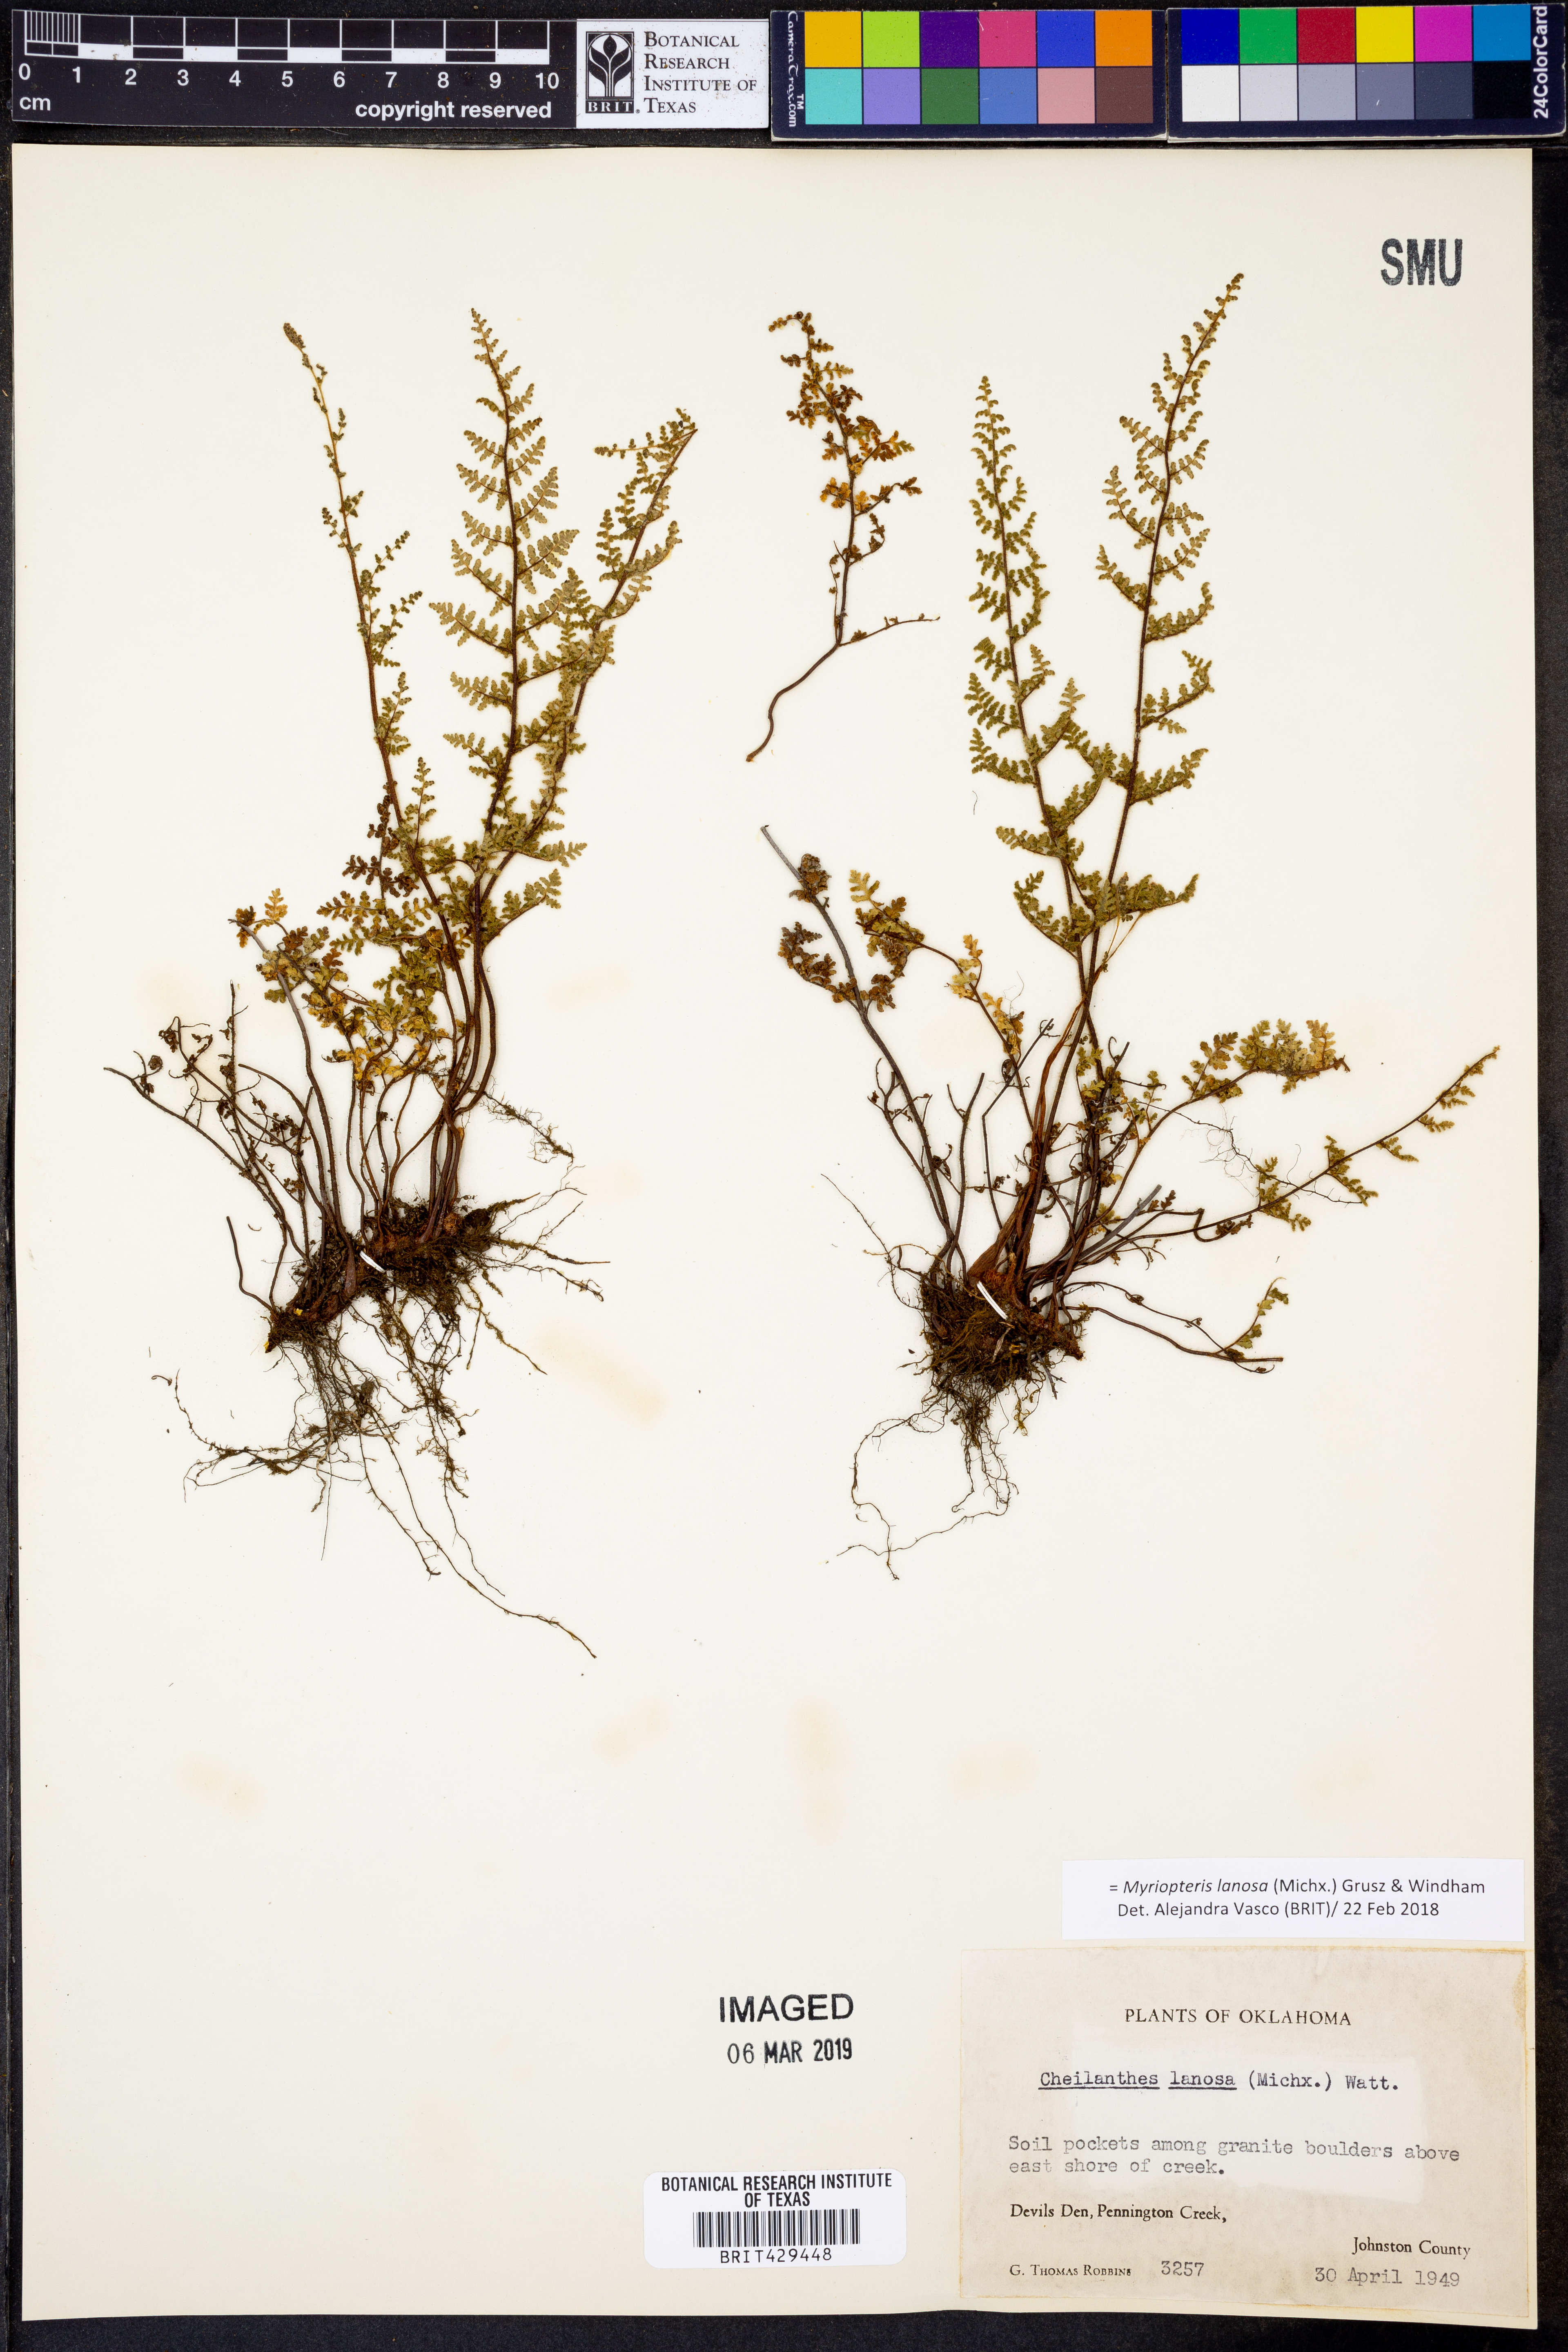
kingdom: Plantae
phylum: Tracheophyta
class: Polypodiopsida
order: Polypodiales
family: Pteridaceae
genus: Myriopteris
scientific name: Myriopteris lanosa
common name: Hairy lip fern
